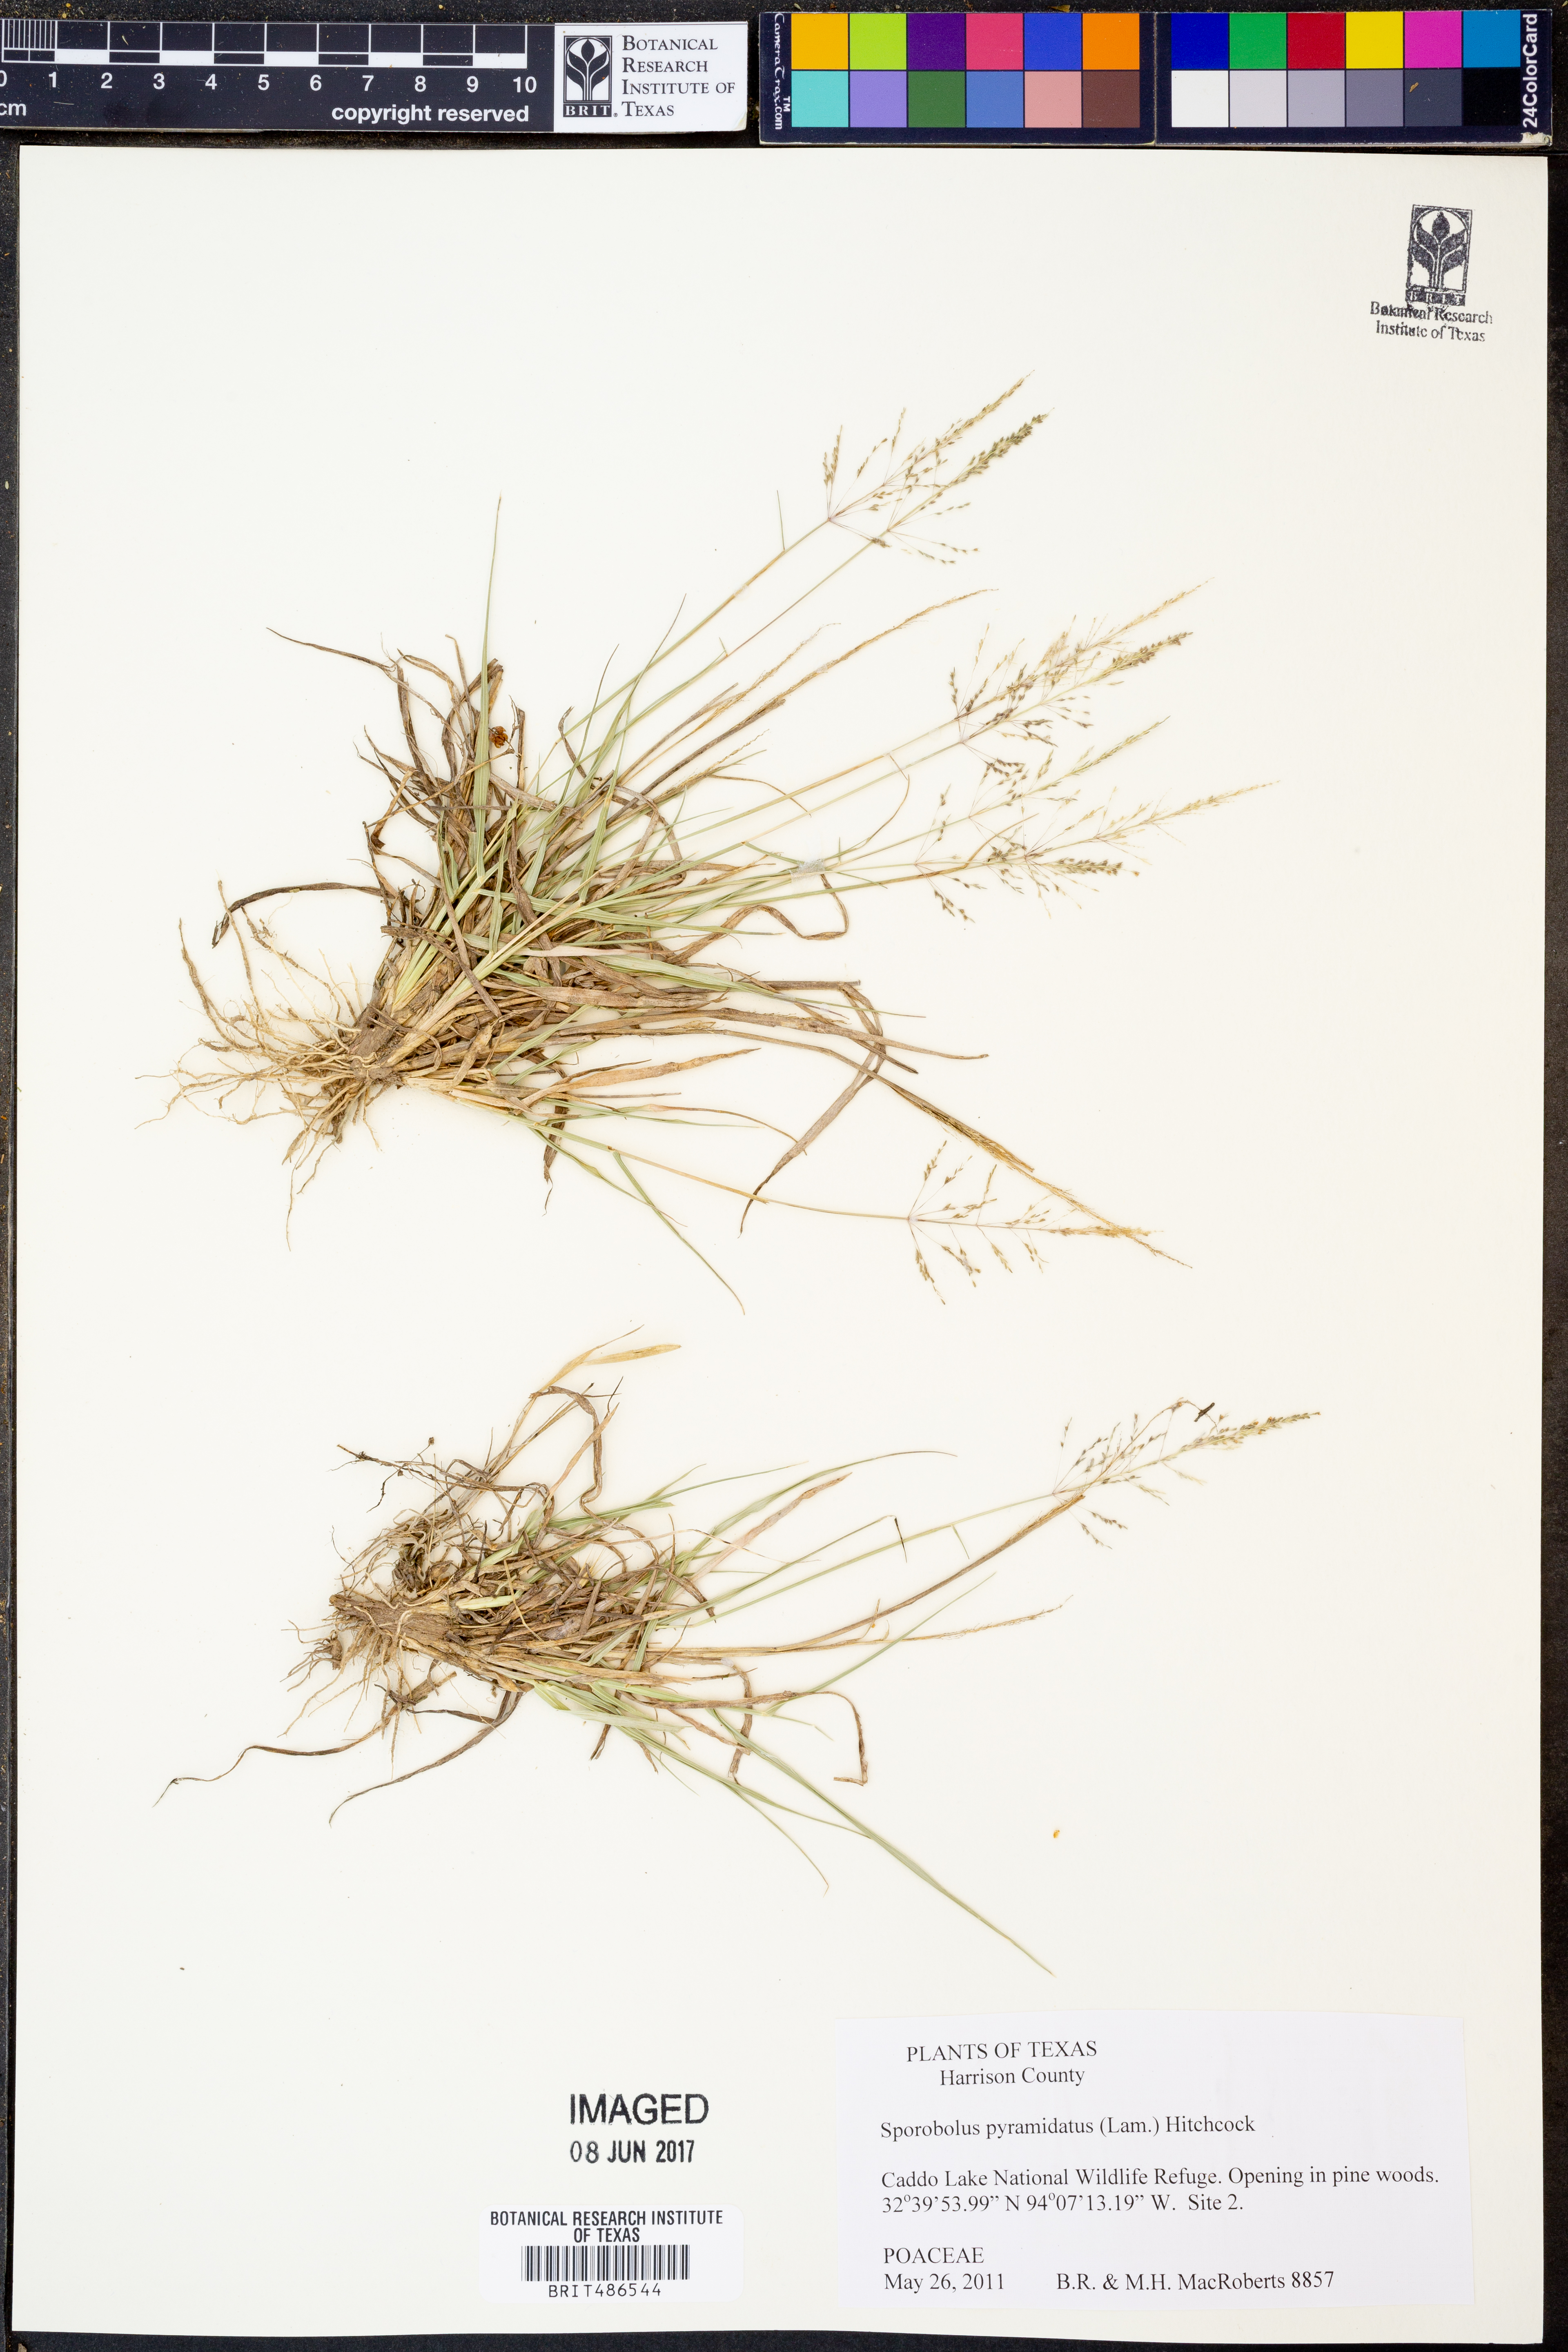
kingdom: Plantae
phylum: Tracheophyta
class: Liliopsida
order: Poales
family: Poaceae
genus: Sporobolus
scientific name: Sporobolus pyramidatus
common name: Whorled dropseed
